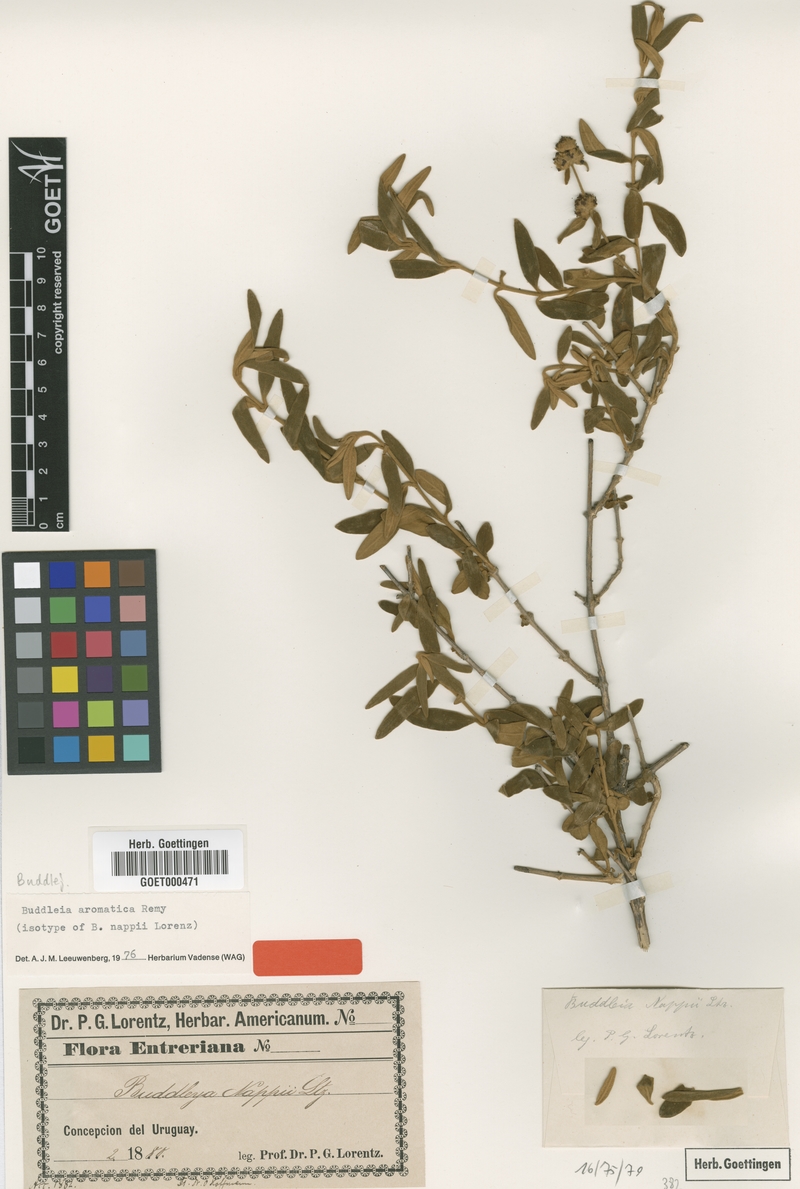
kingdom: Plantae
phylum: Tracheophyta
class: Magnoliopsida
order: Lamiales
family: Scrophulariaceae
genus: Buddleja
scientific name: Buddleja aromatica
